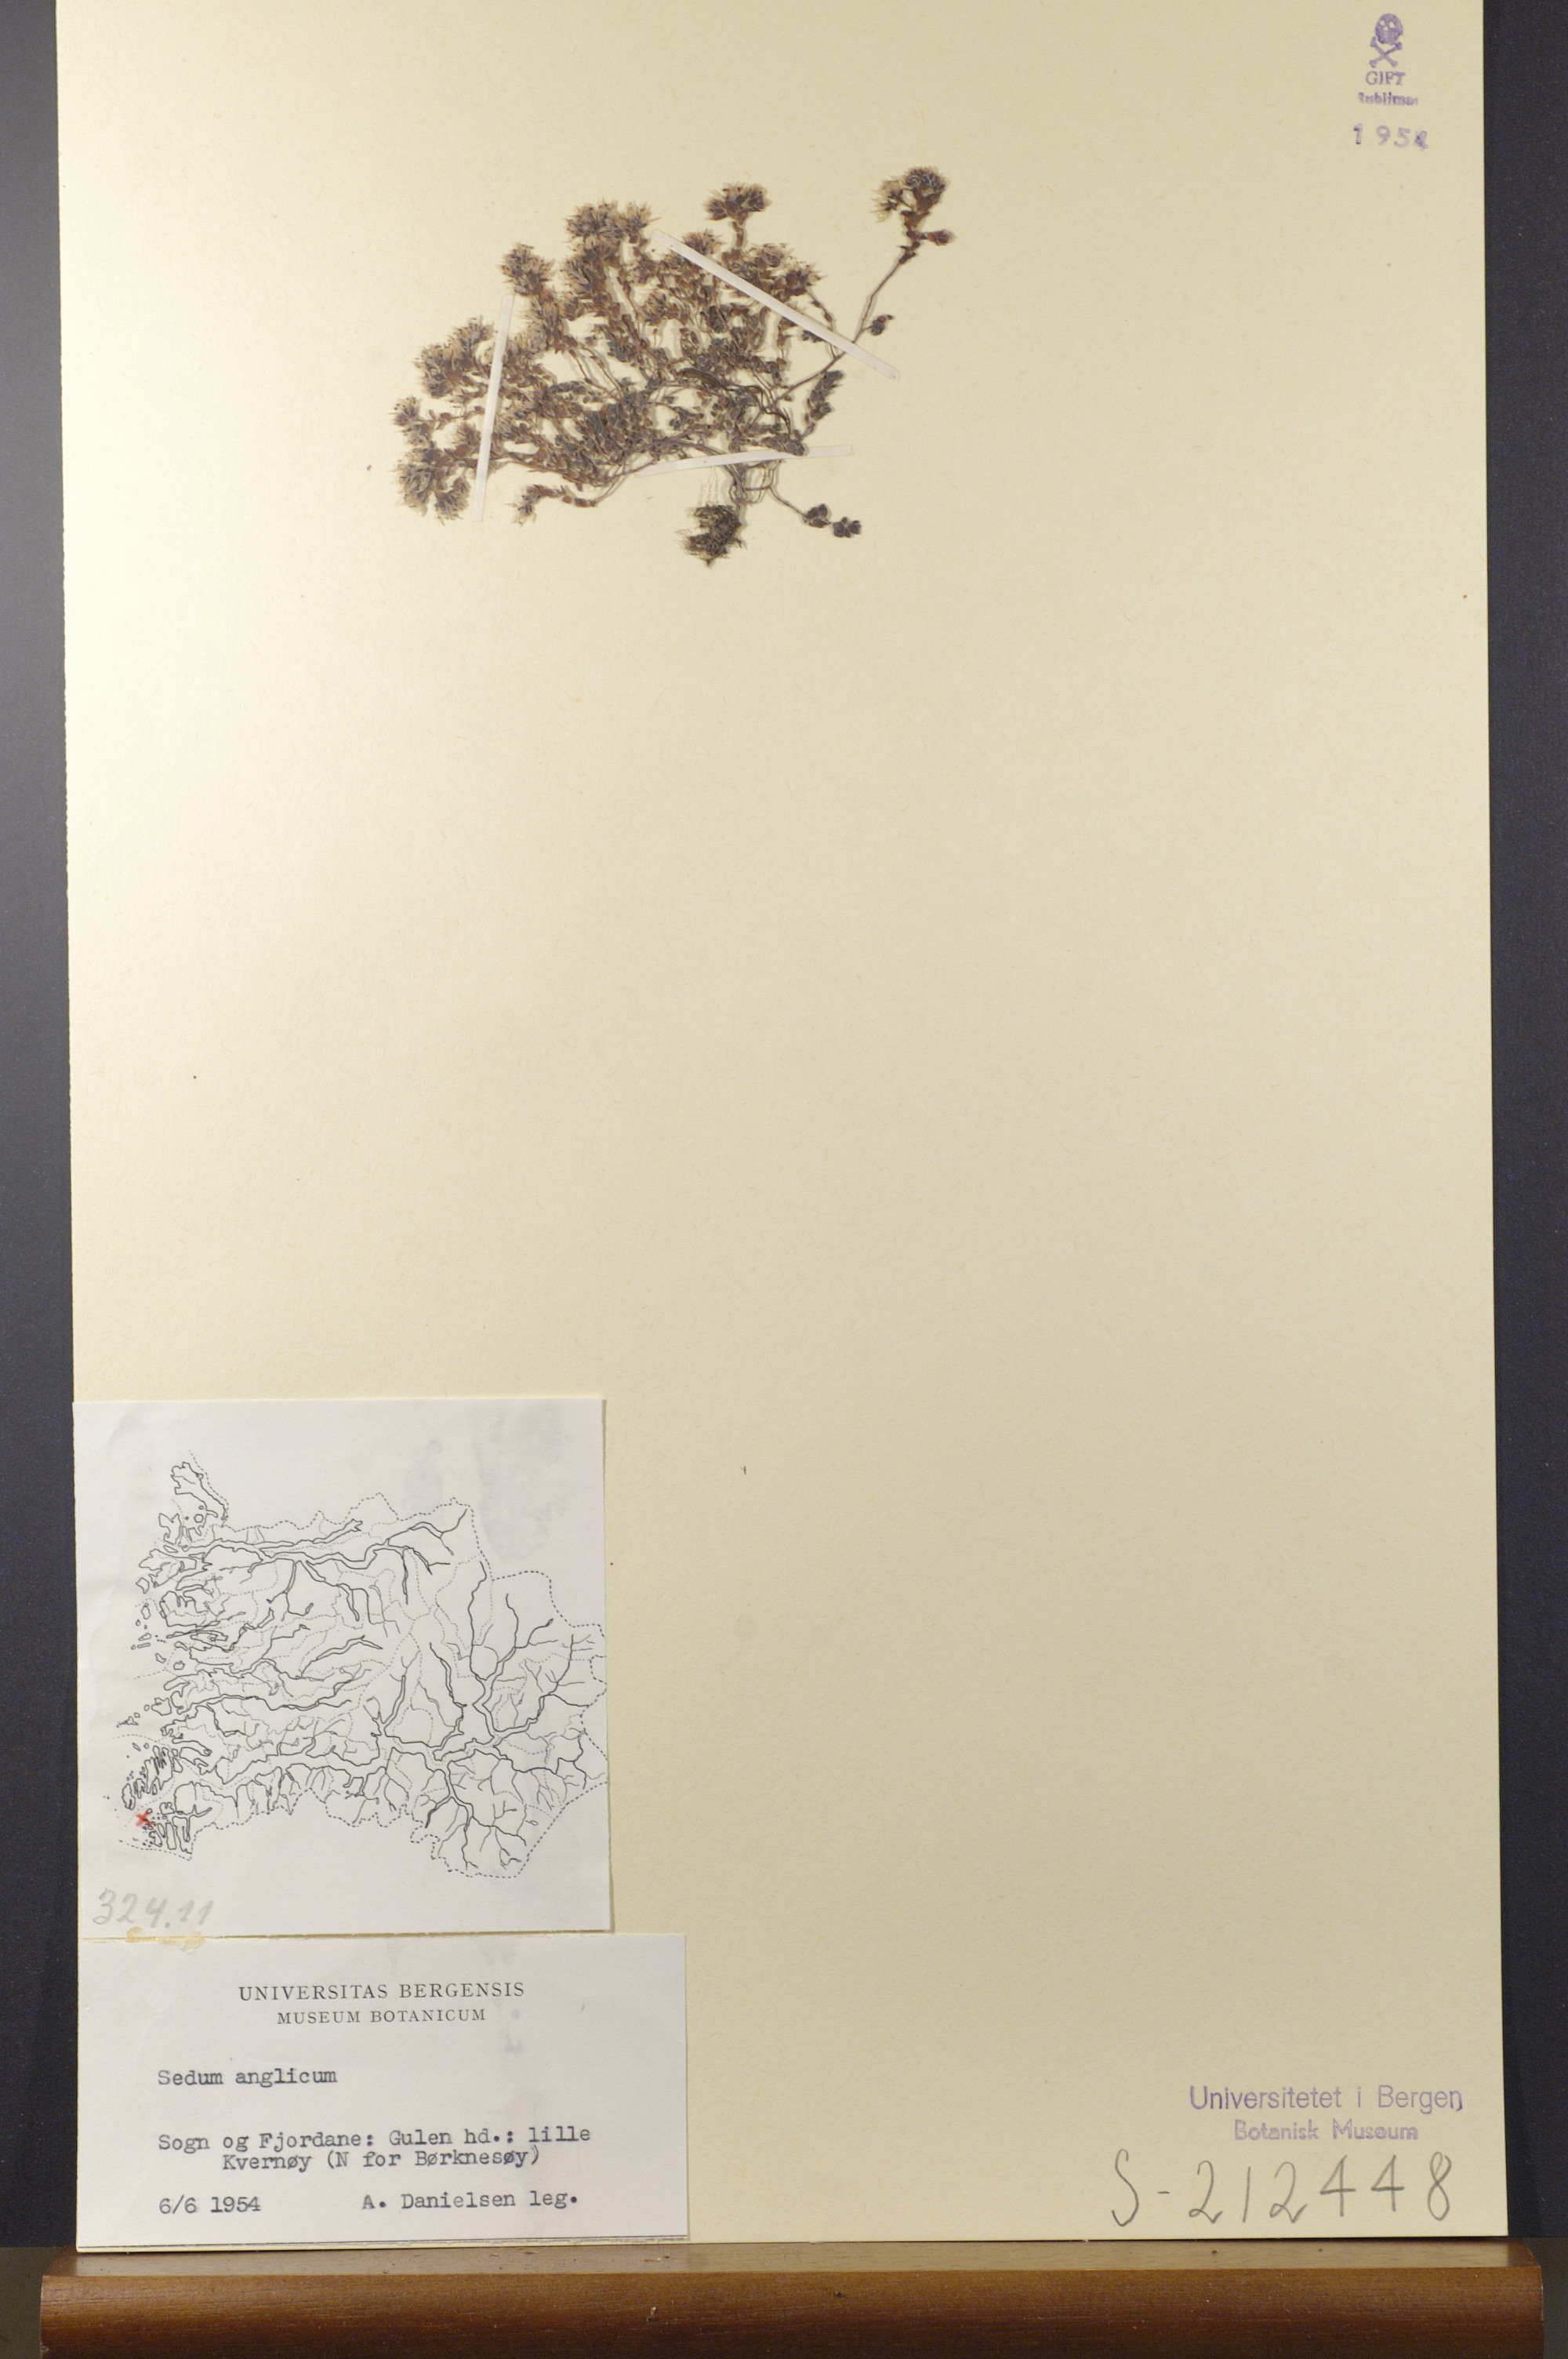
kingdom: Plantae
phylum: Tracheophyta
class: Magnoliopsida
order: Saxifragales
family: Crassulaceae
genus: Sedum
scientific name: Sedum anglicum
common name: English stonecrop
